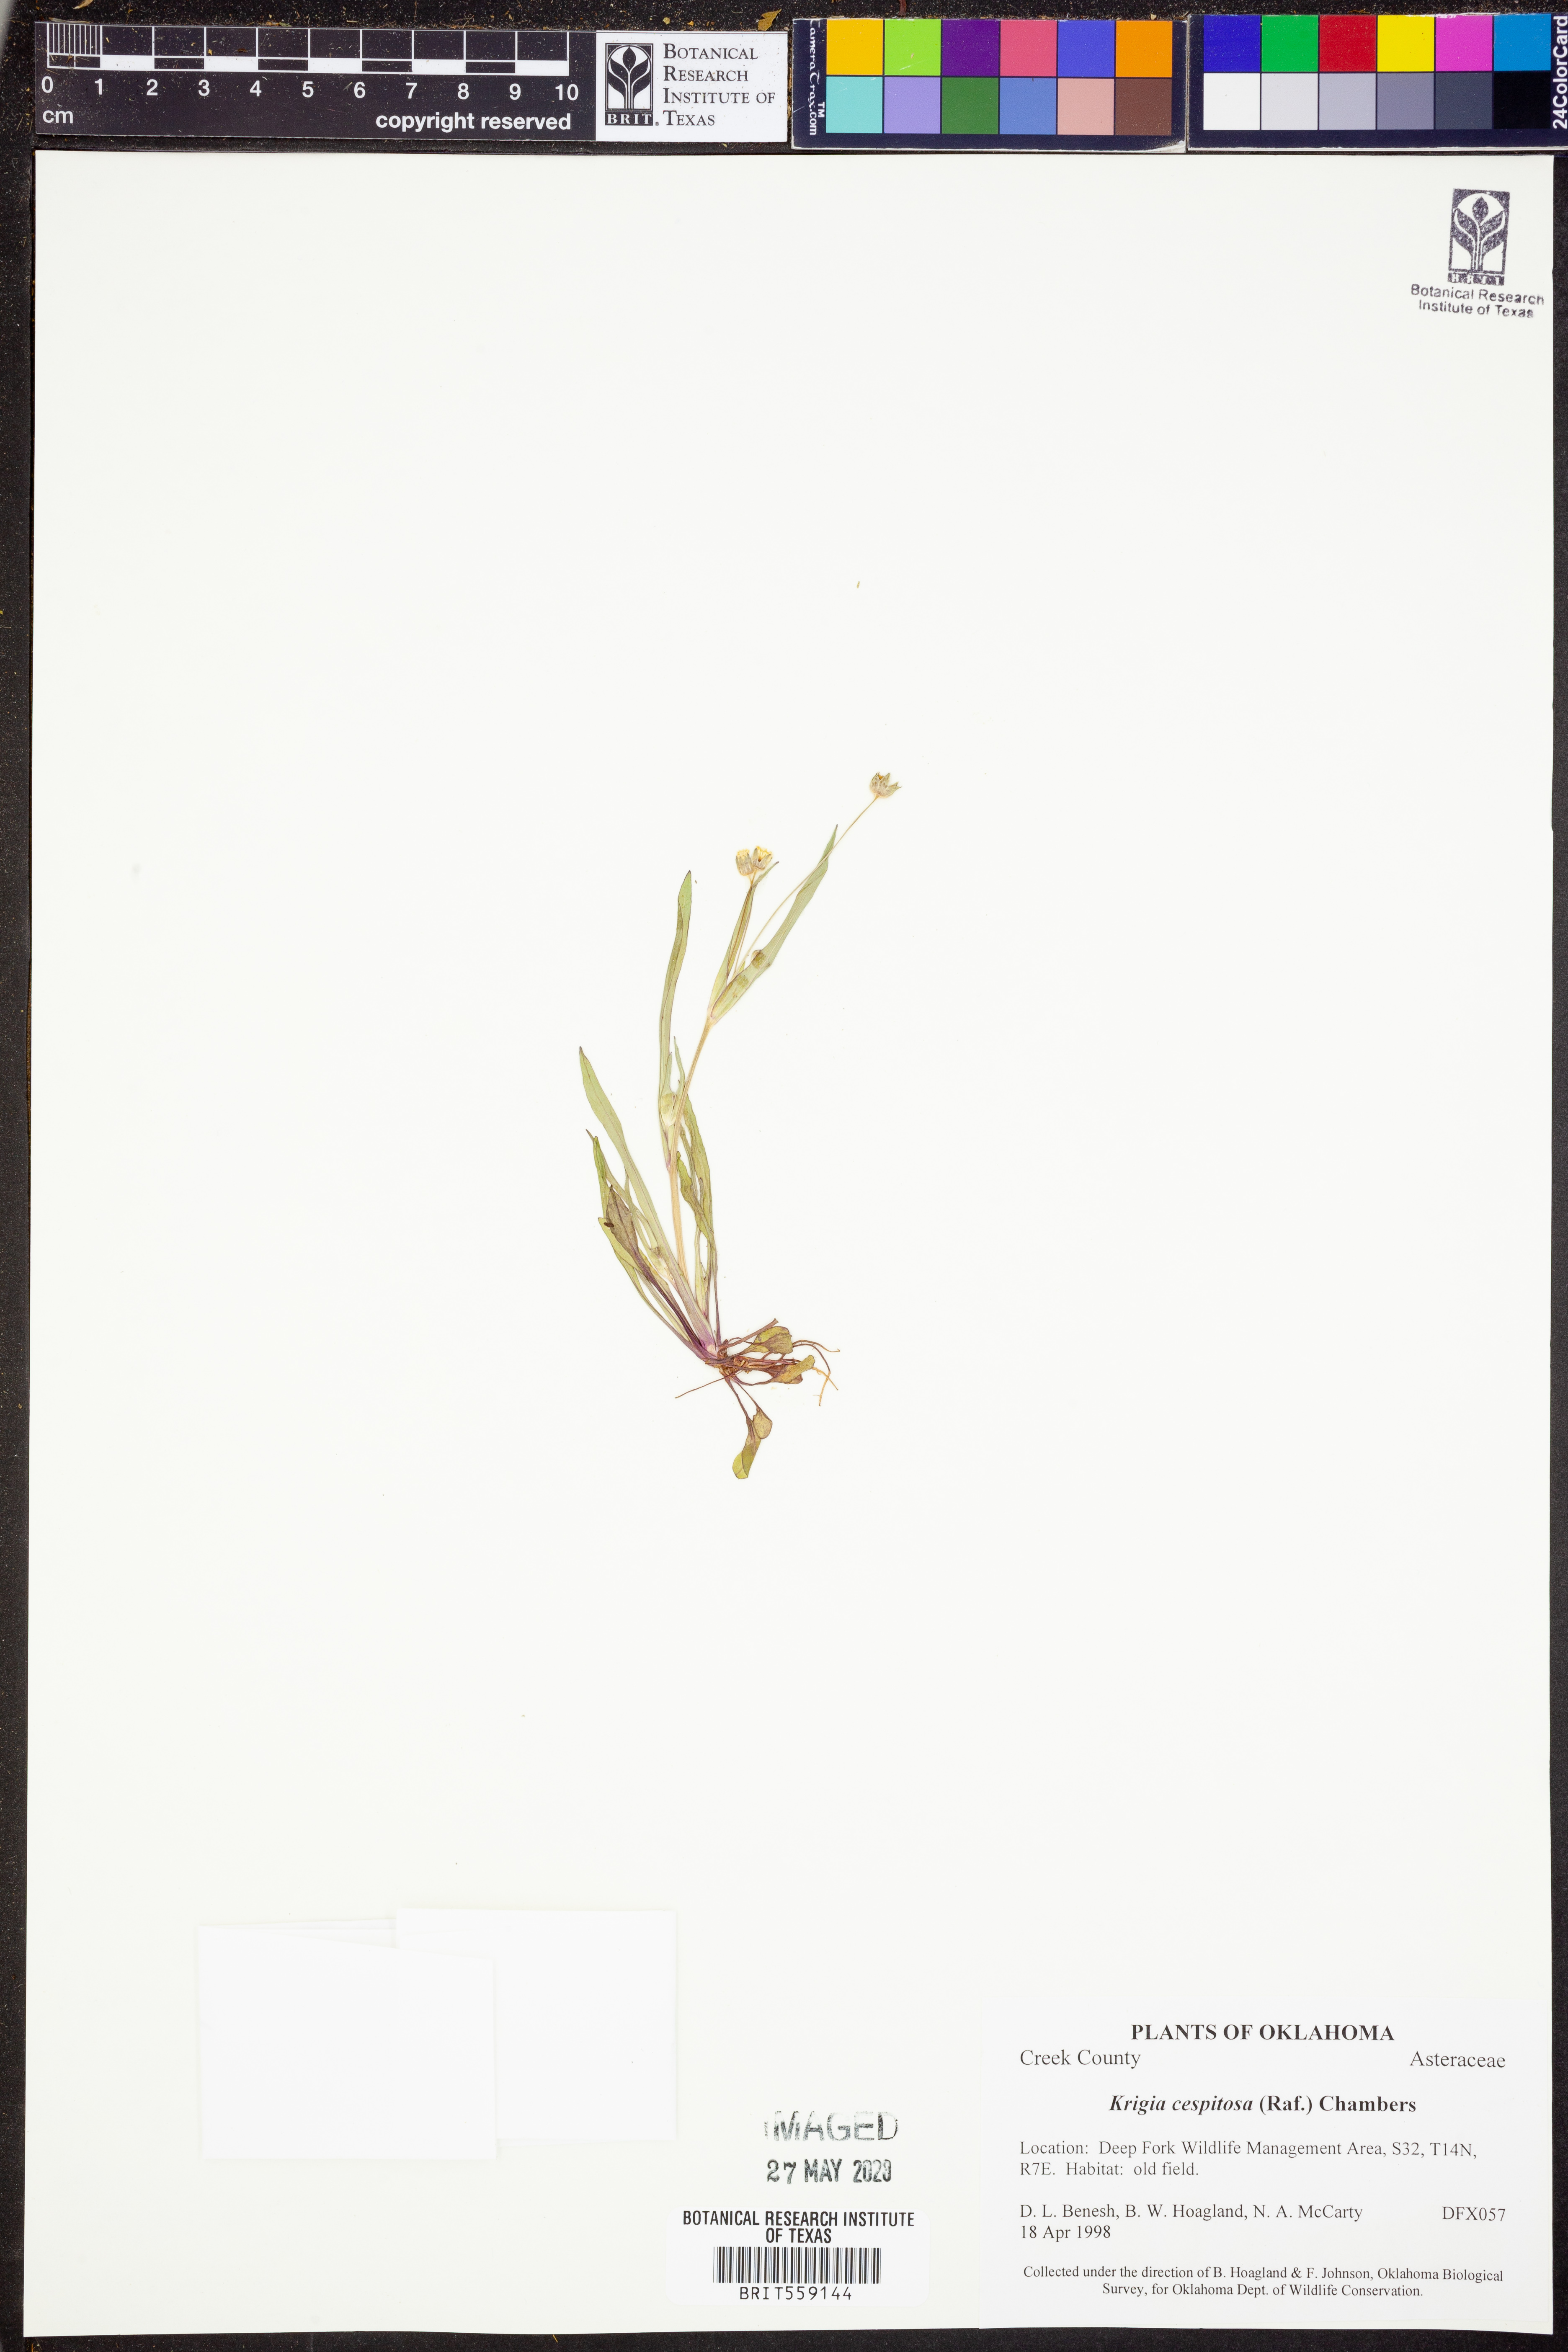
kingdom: Plantae
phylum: Tracheophyta
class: Magnoliopsida
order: Asterales
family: Asteraceae
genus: Krigia
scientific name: Krigia cespitosa
